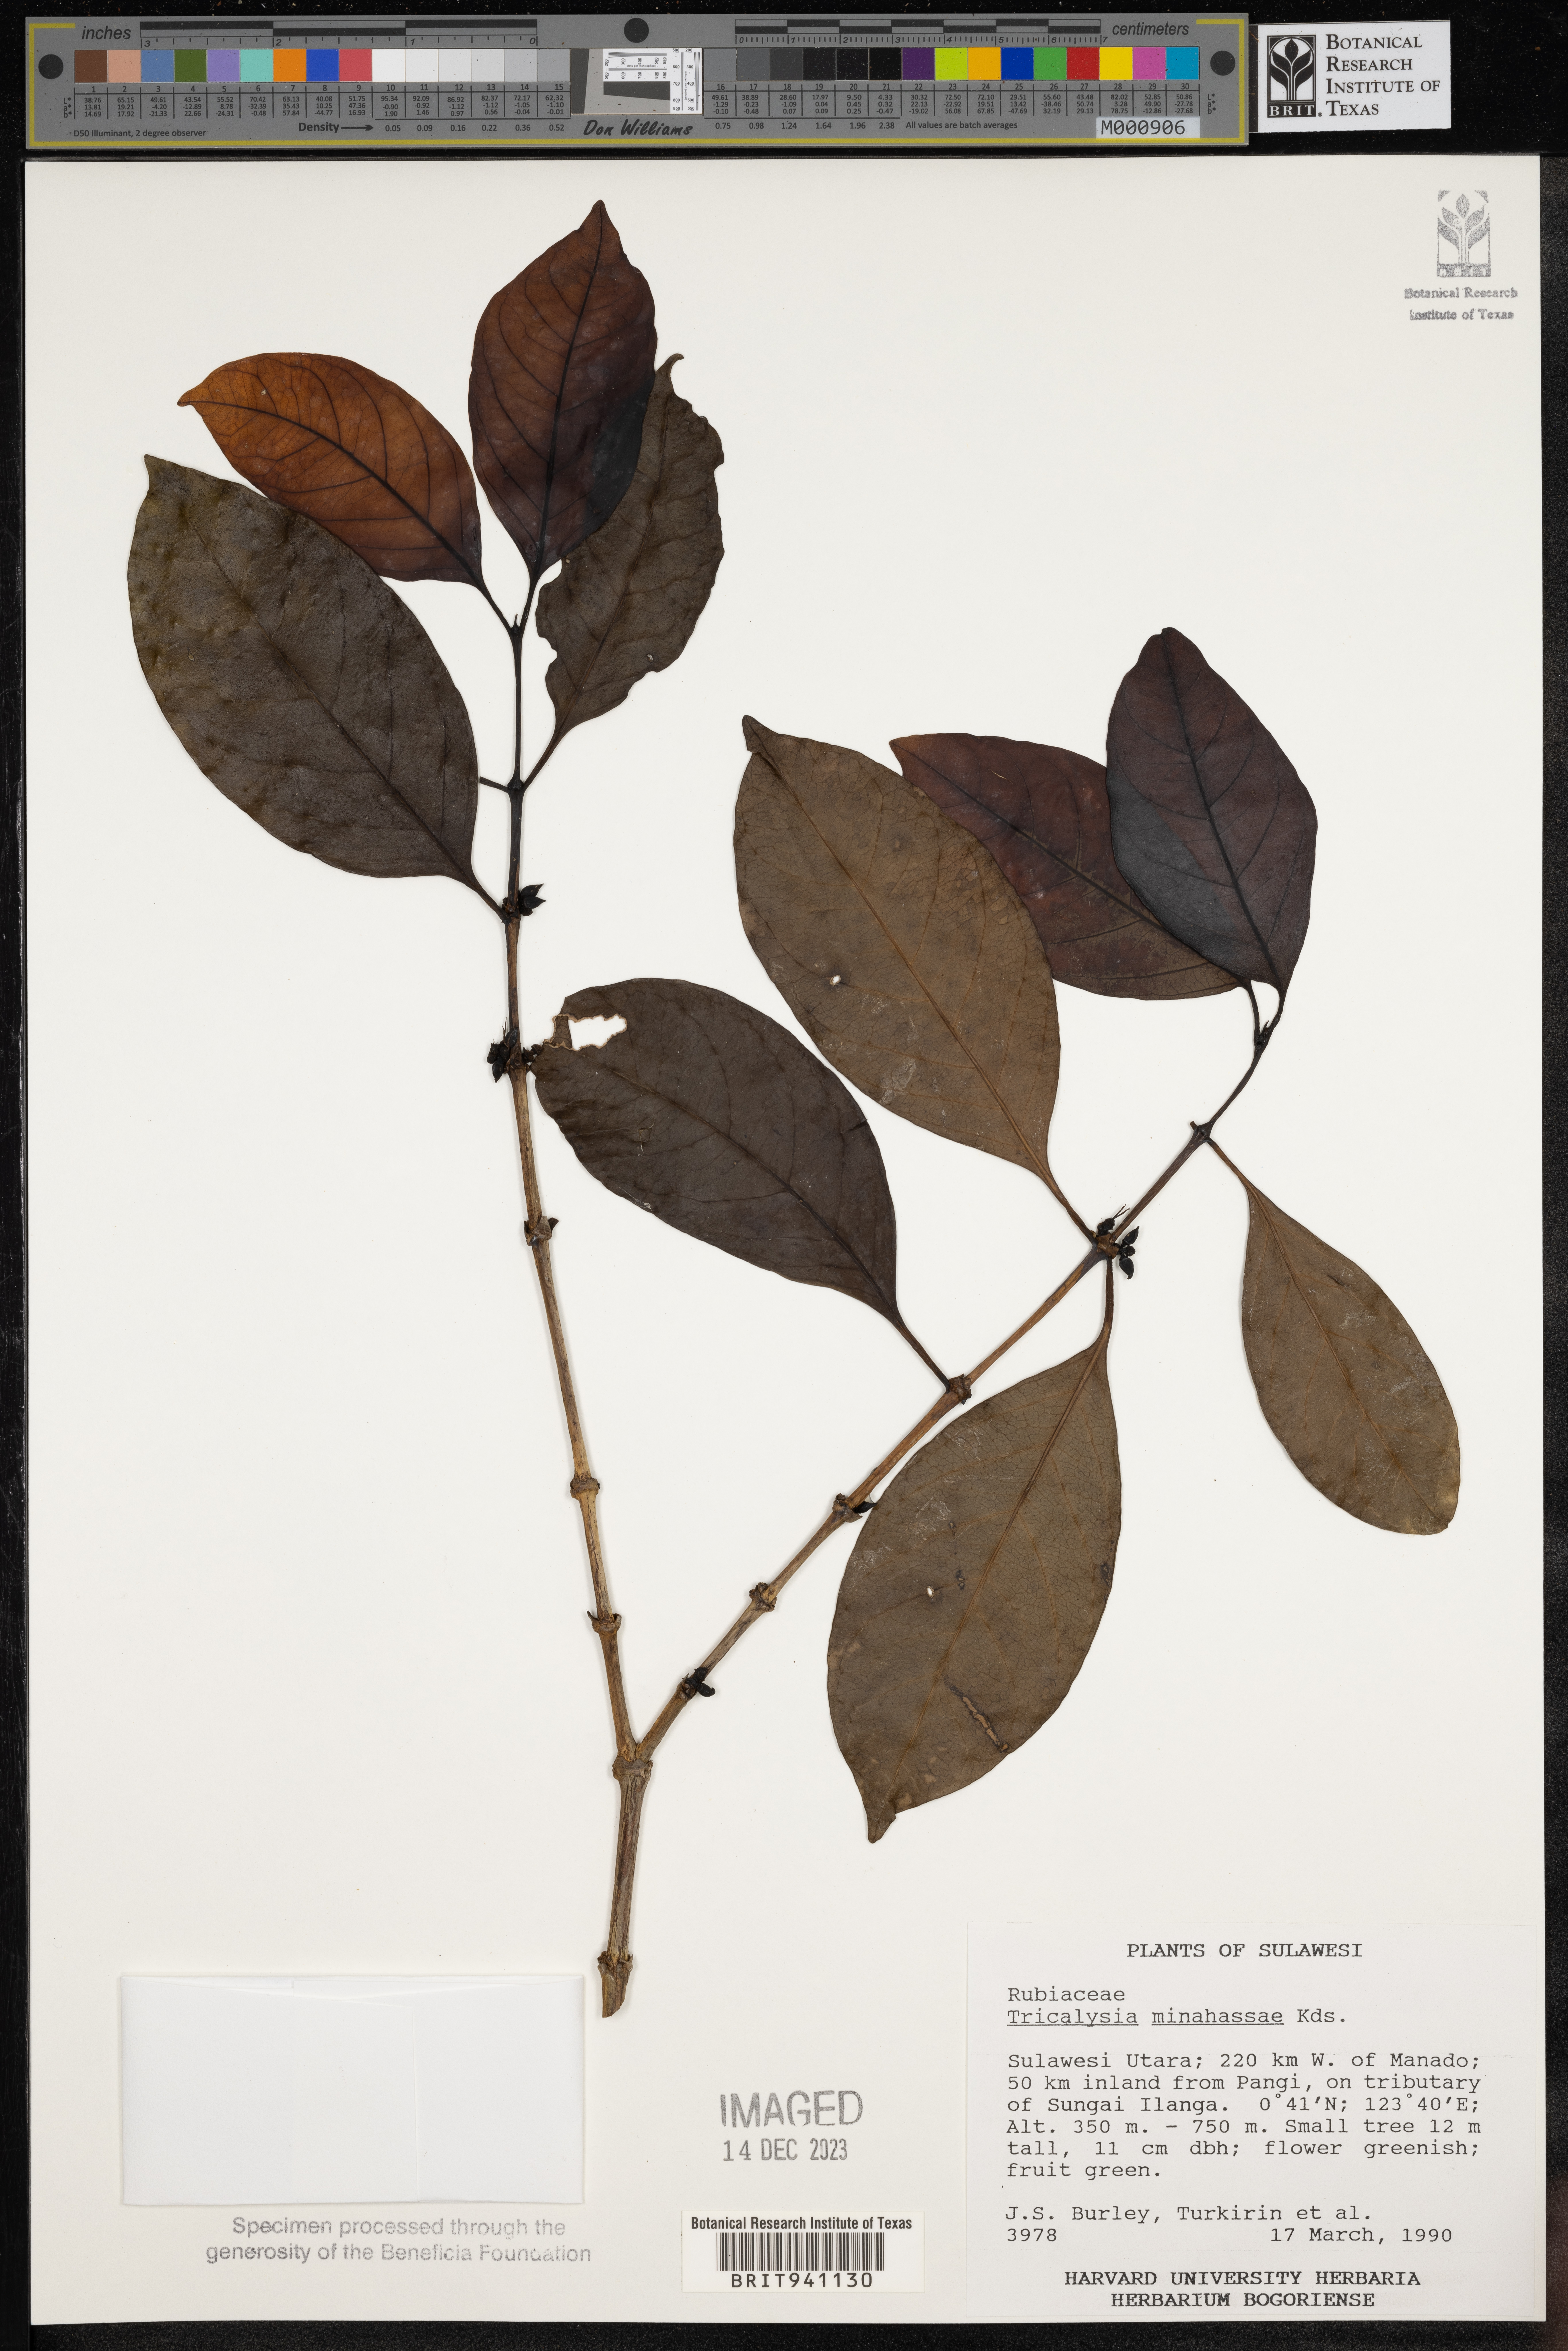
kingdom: Plantae
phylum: Tracheophyta
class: Magnoliopsida
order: Gentianales
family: Rubiaceae
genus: Tricalysia
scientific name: Tricalysia
